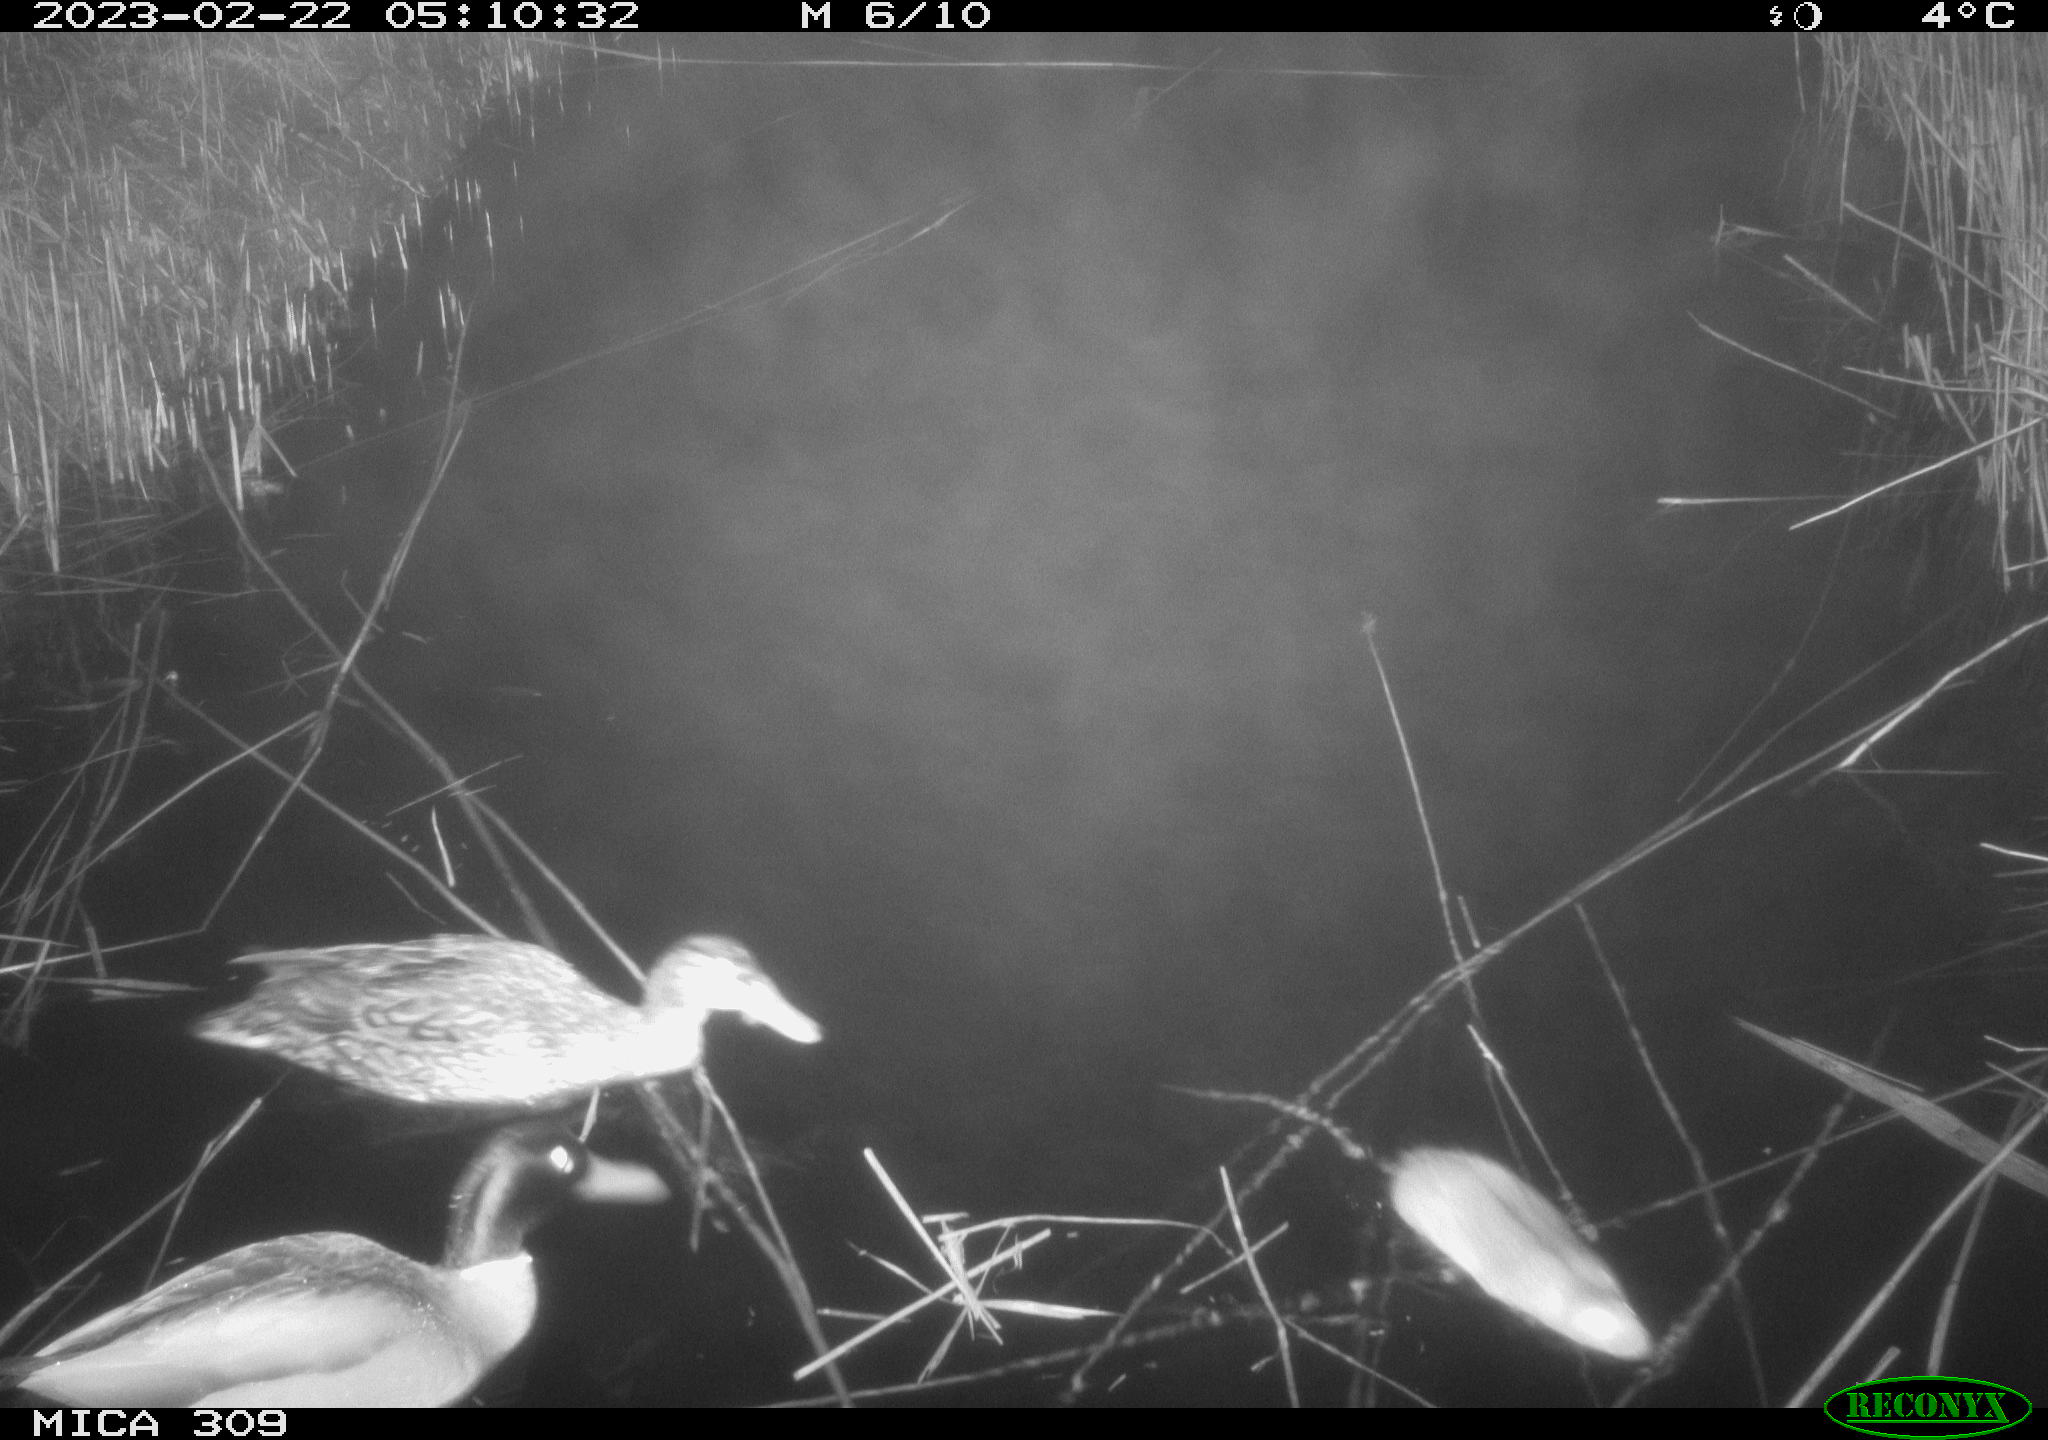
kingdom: Animalia
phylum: Chordata
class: Mammalia
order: Rodentia
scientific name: Rodentia
